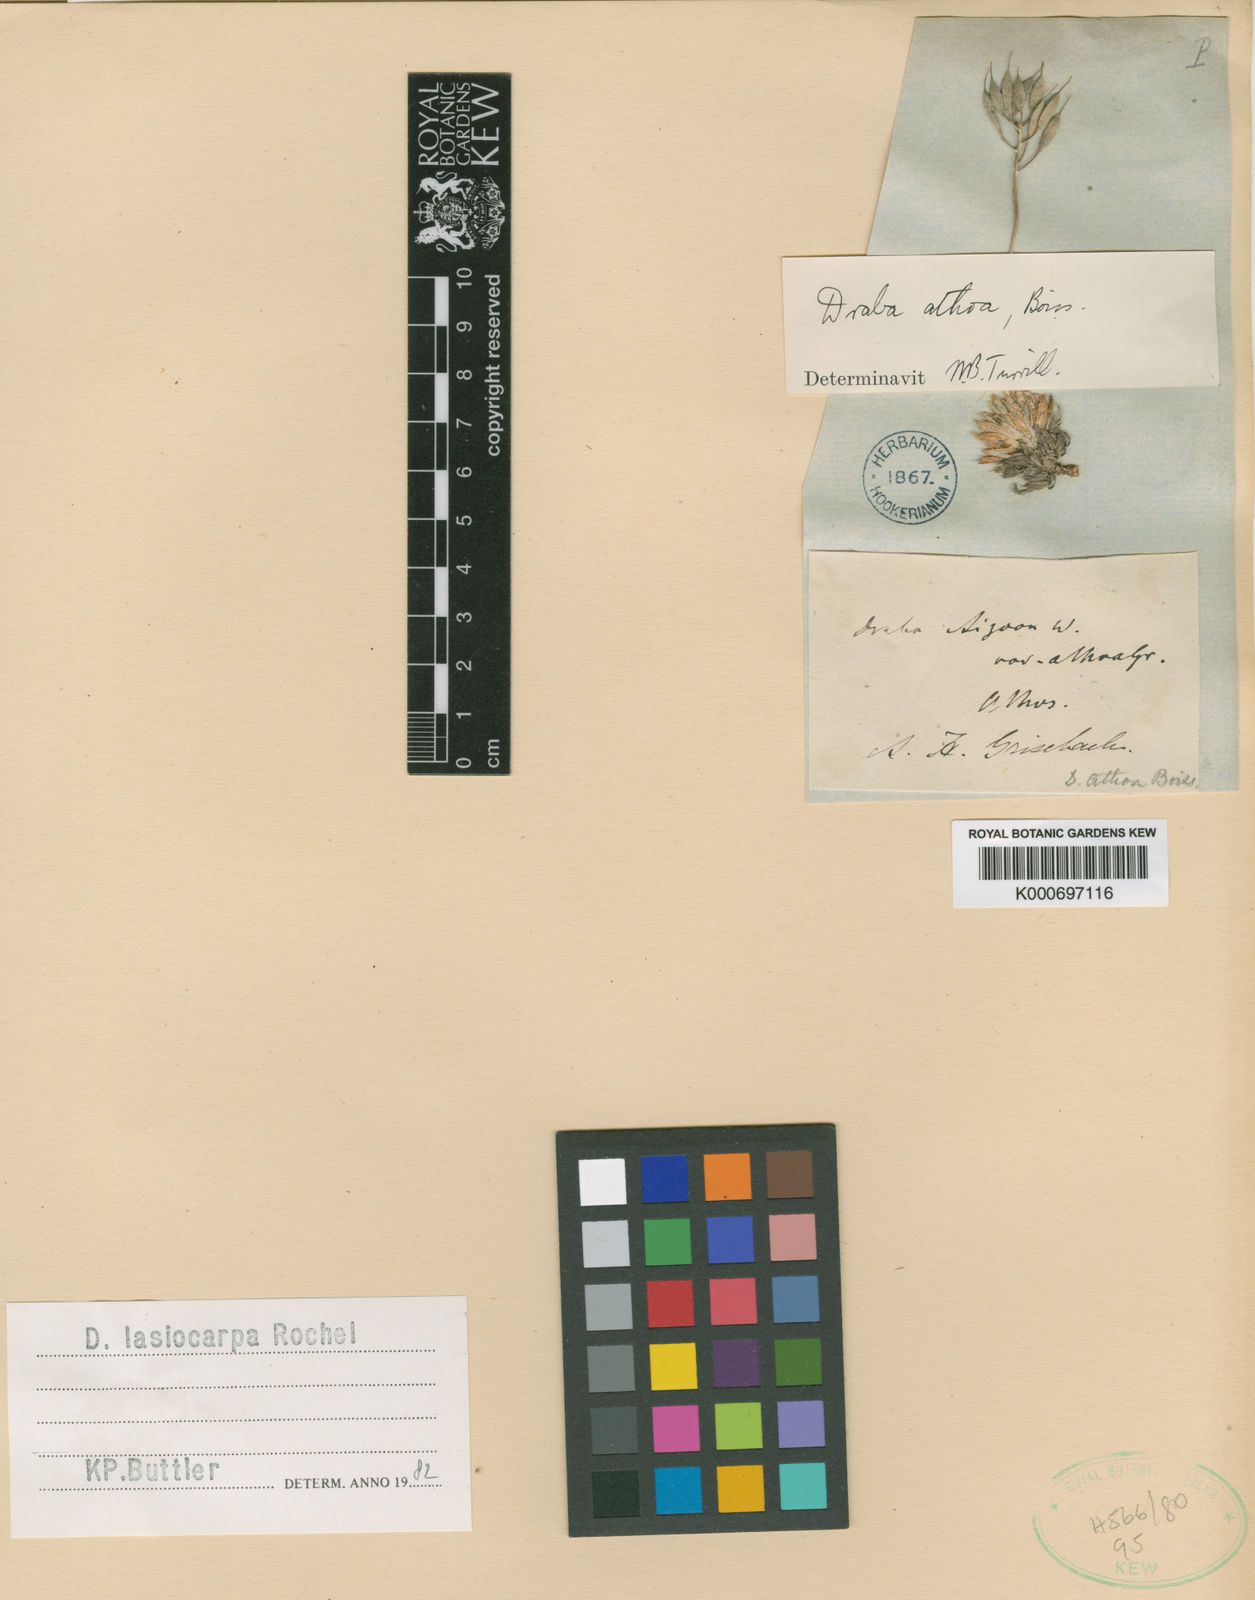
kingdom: Plantae
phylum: Tracheophyta
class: Magnoliopsida
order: Brassicales
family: Brassicaceae
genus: Draba
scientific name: Draba lasiocarpa
